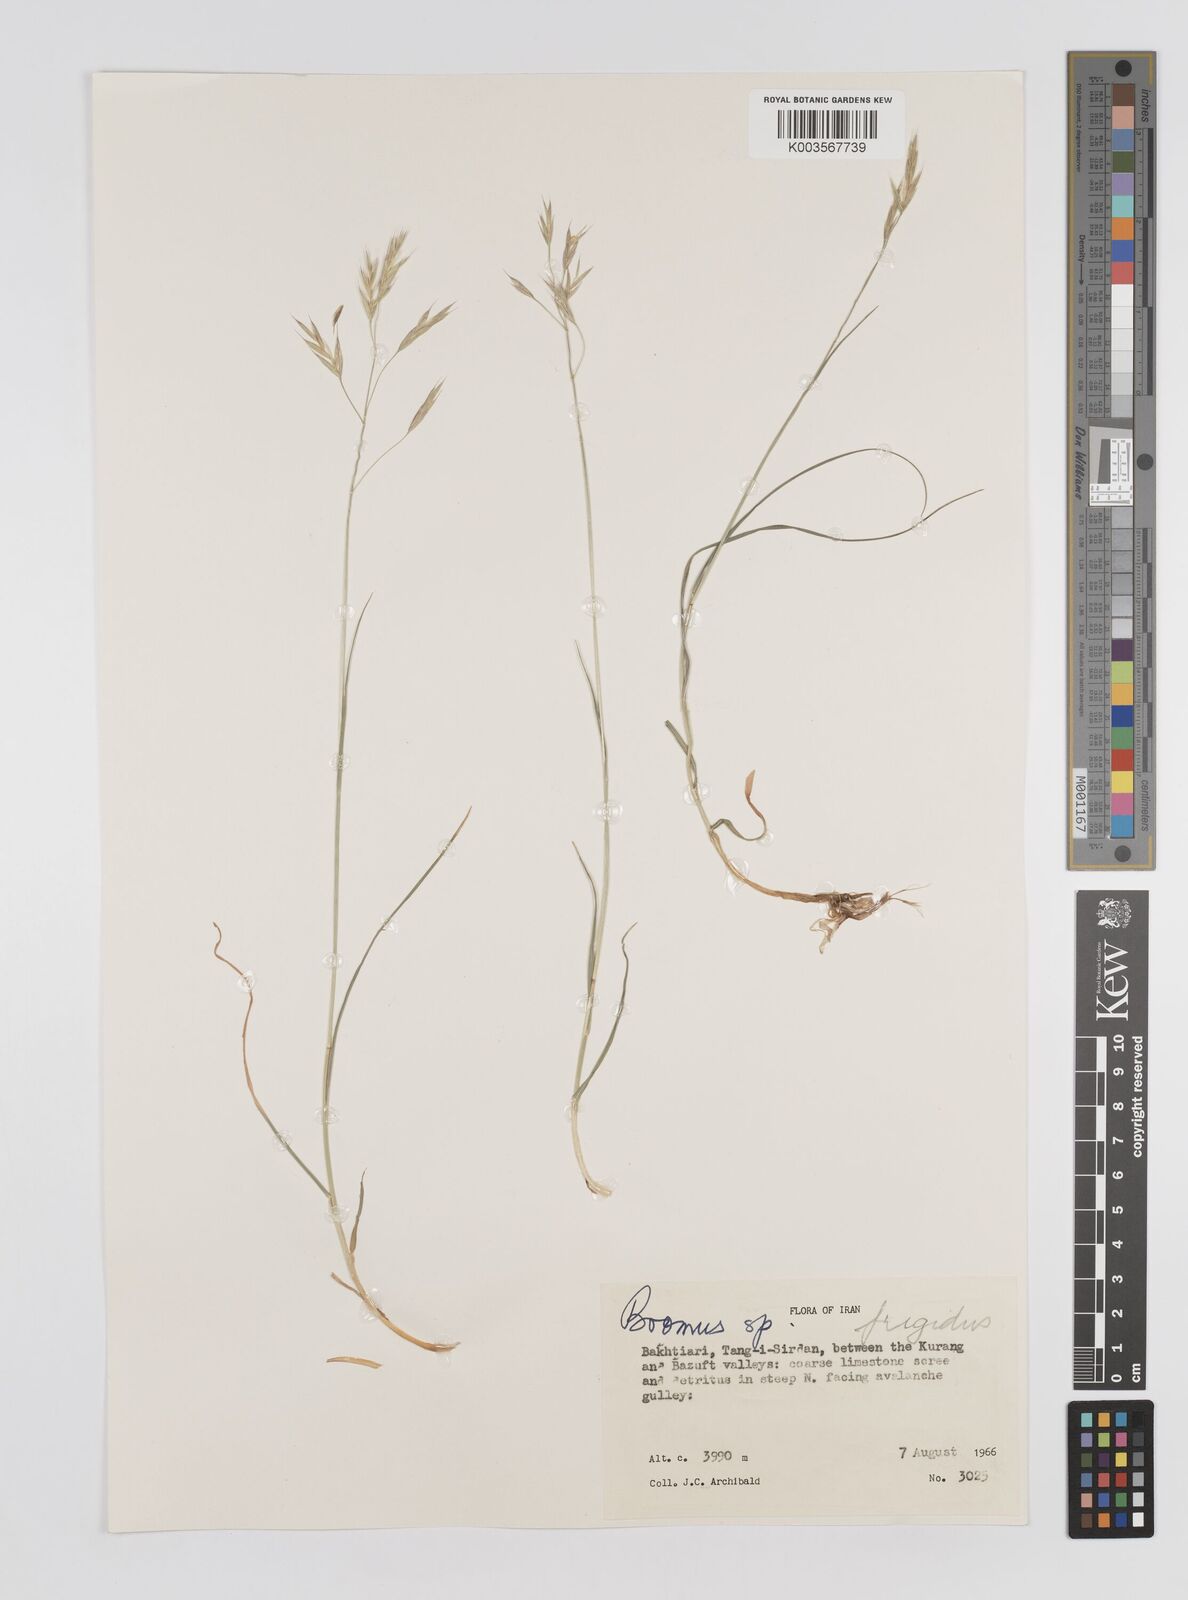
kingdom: Plantae
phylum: Tracheophyta
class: Liliopsida
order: Poales
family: Poaceae
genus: Bromus
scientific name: Bromus
